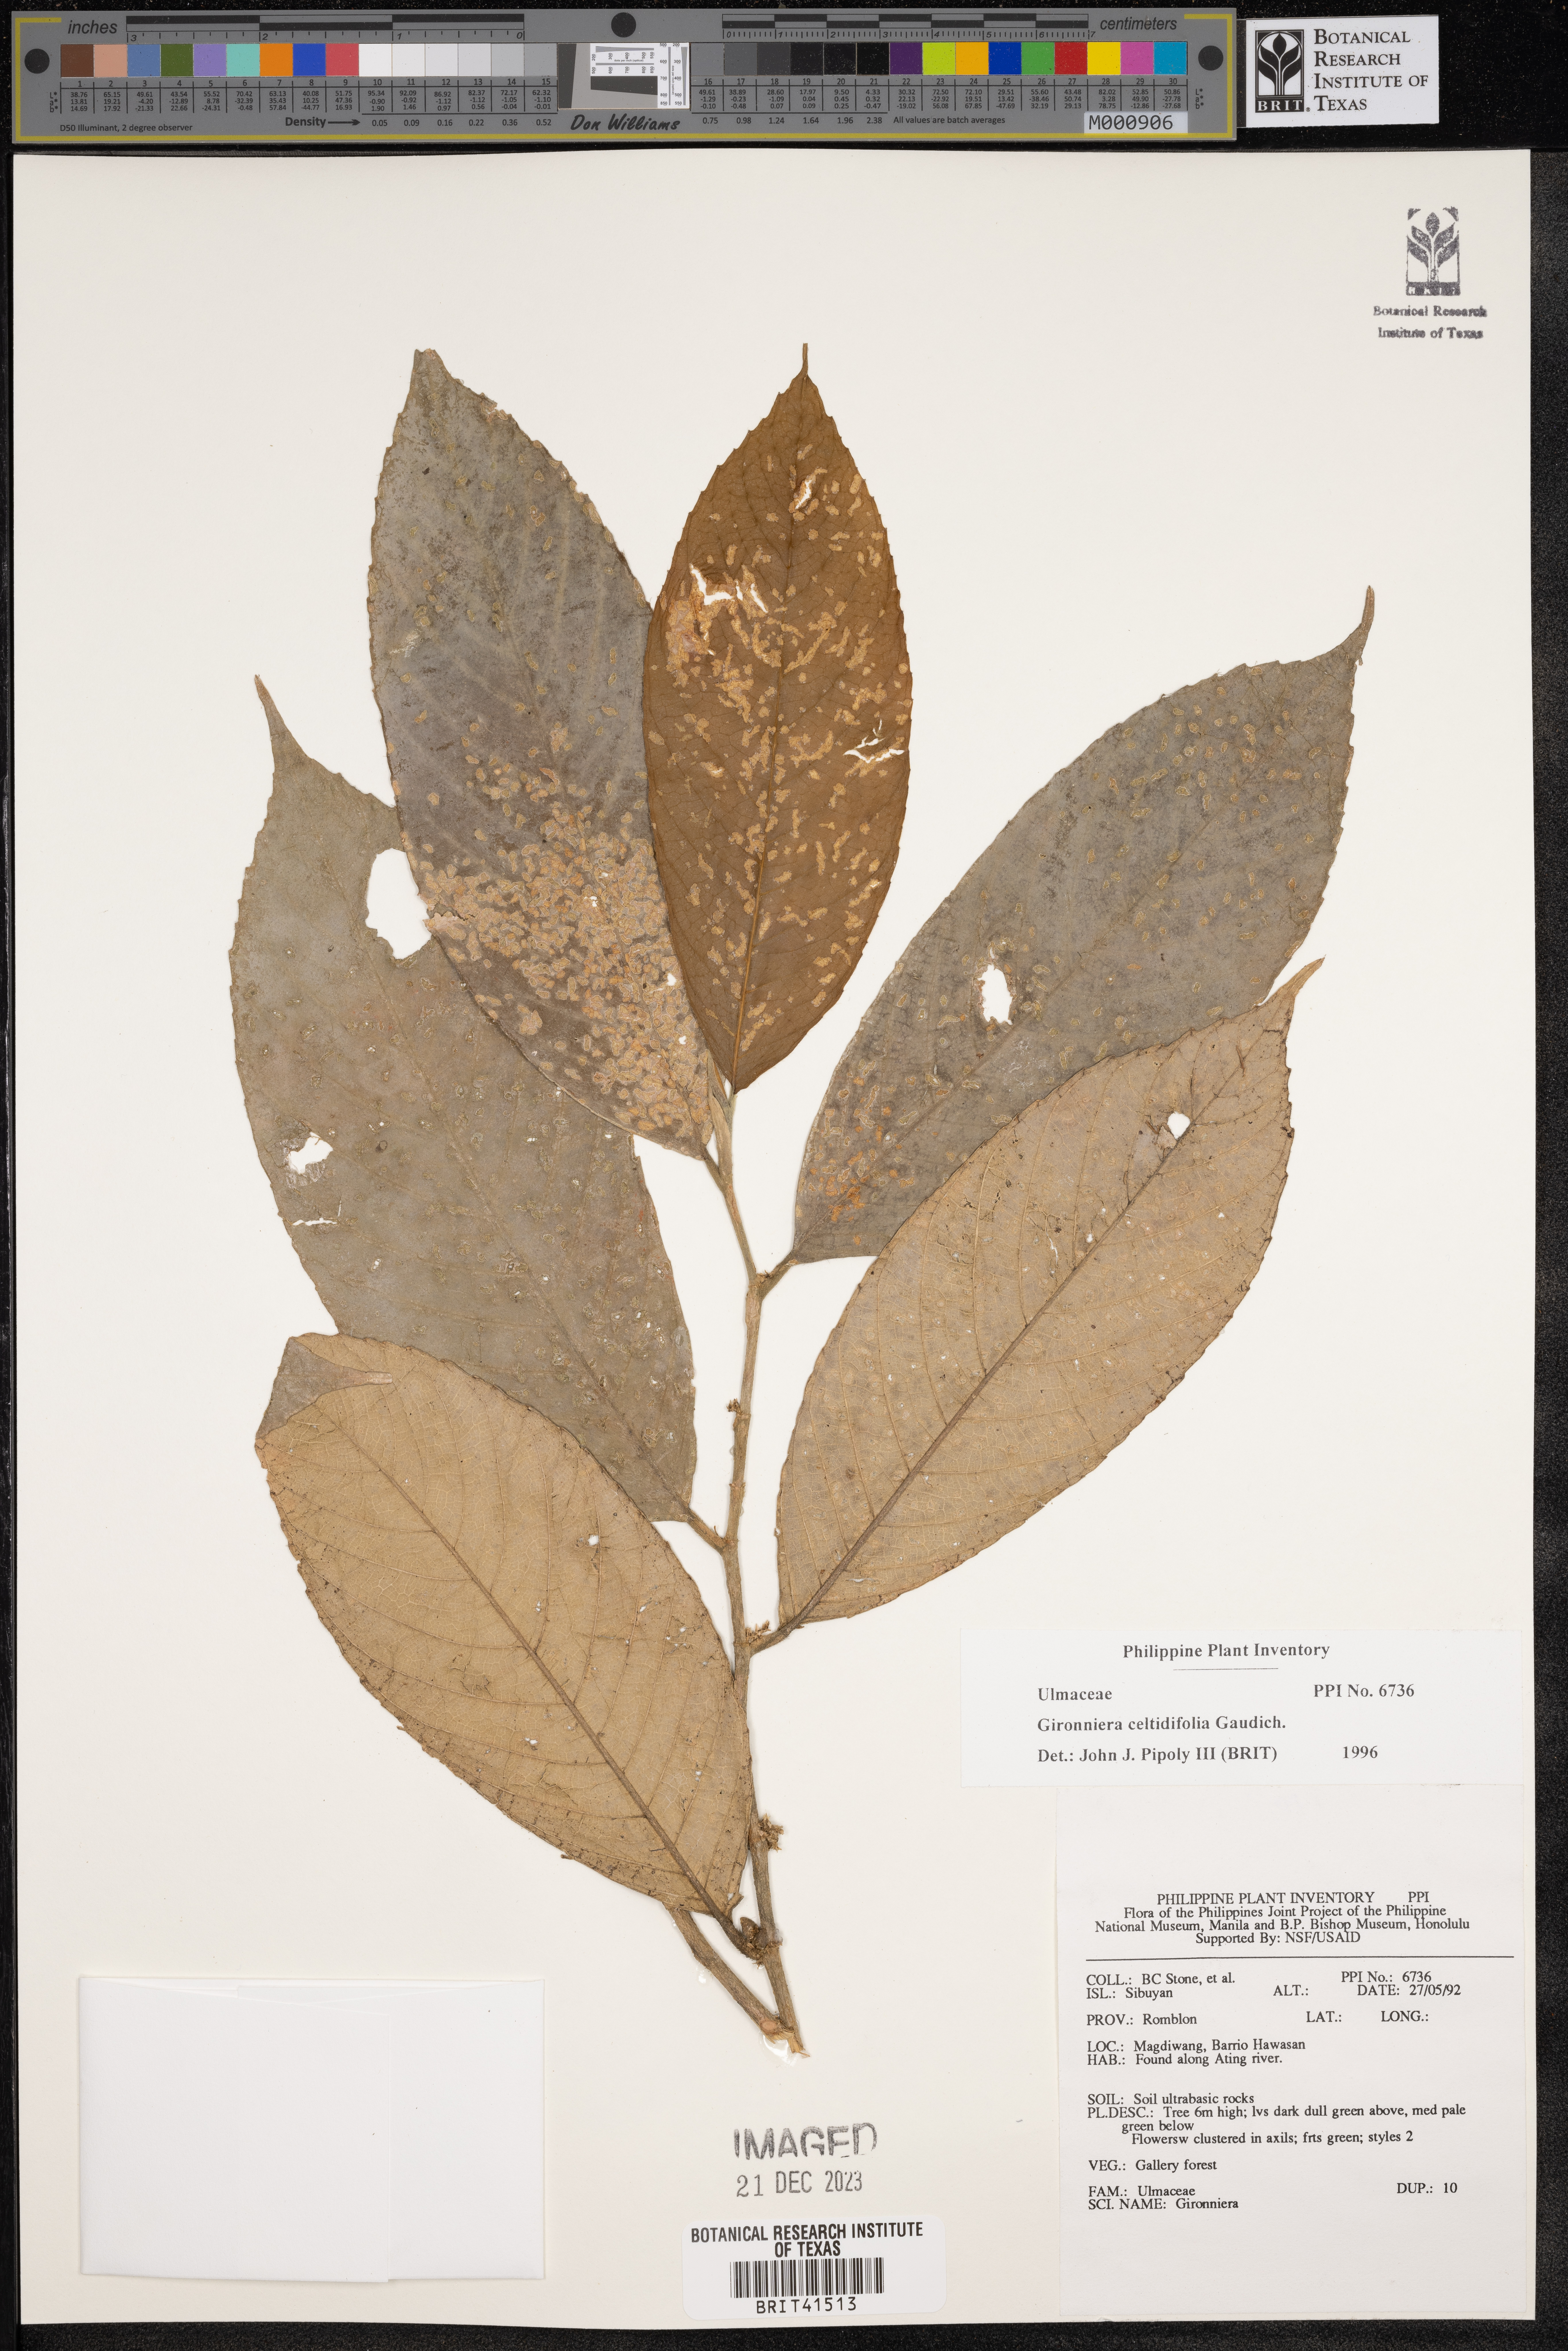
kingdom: Plantae
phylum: Tracheophyta
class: Magnoliopsida
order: Rosales
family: Cannabaceae
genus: Gironniera
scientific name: Gironniera celtidifolia
